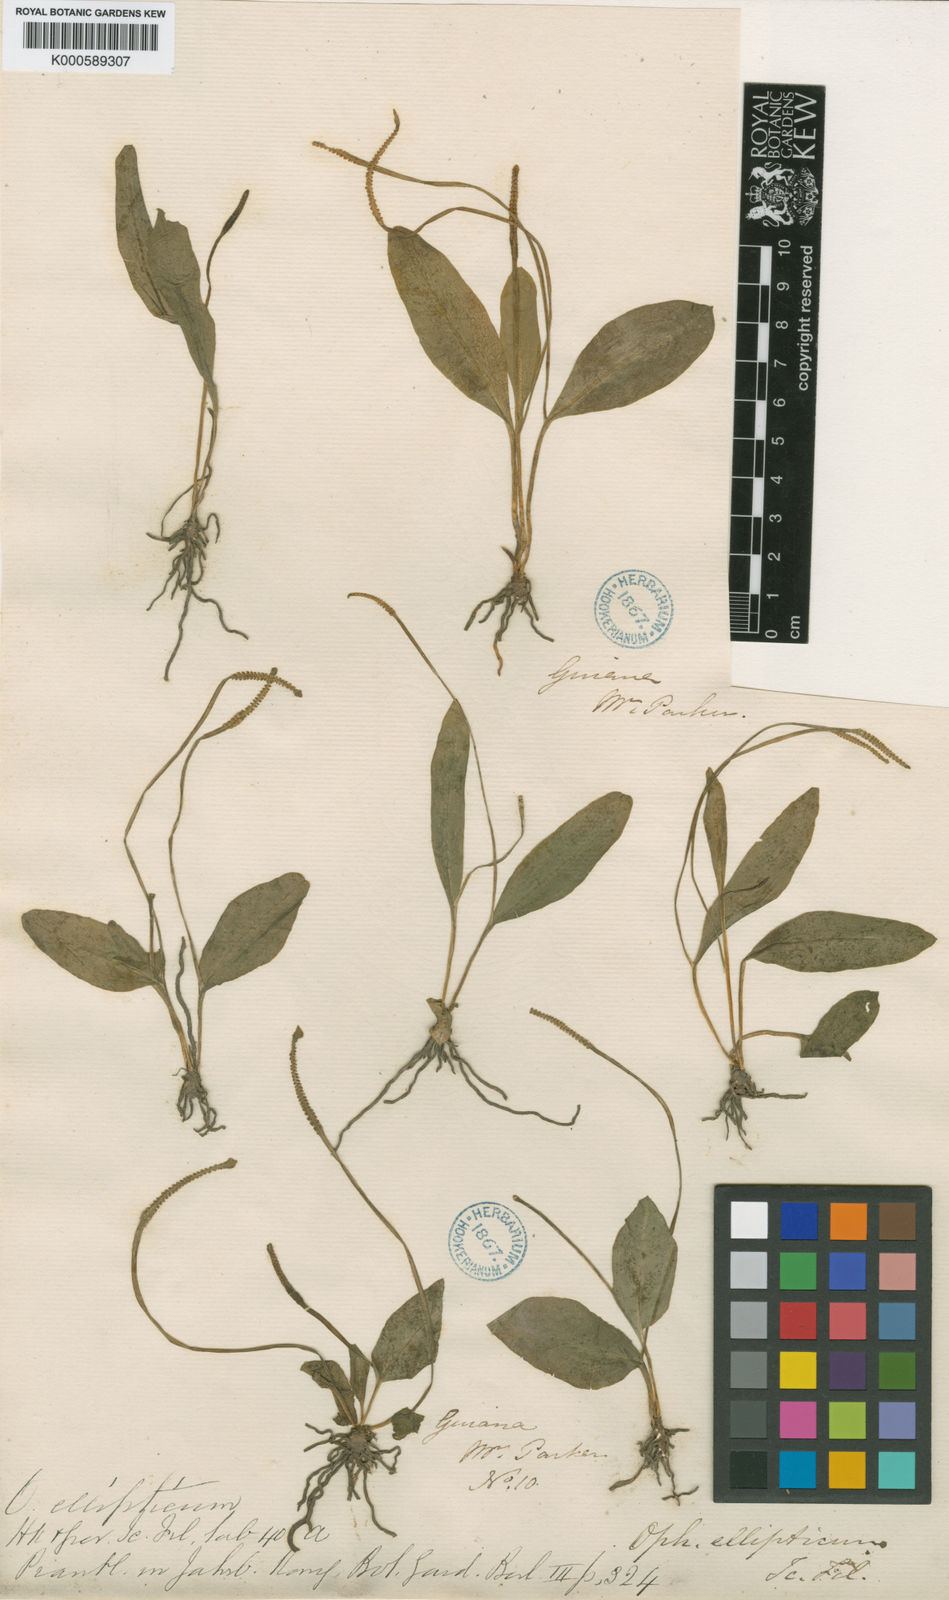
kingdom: Plantae
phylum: Tracheophyta
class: Polypodiopsida
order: Ophioglossales
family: Ophioglossaceae
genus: Ophioglossum
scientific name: Ophioglossum nudicaule
